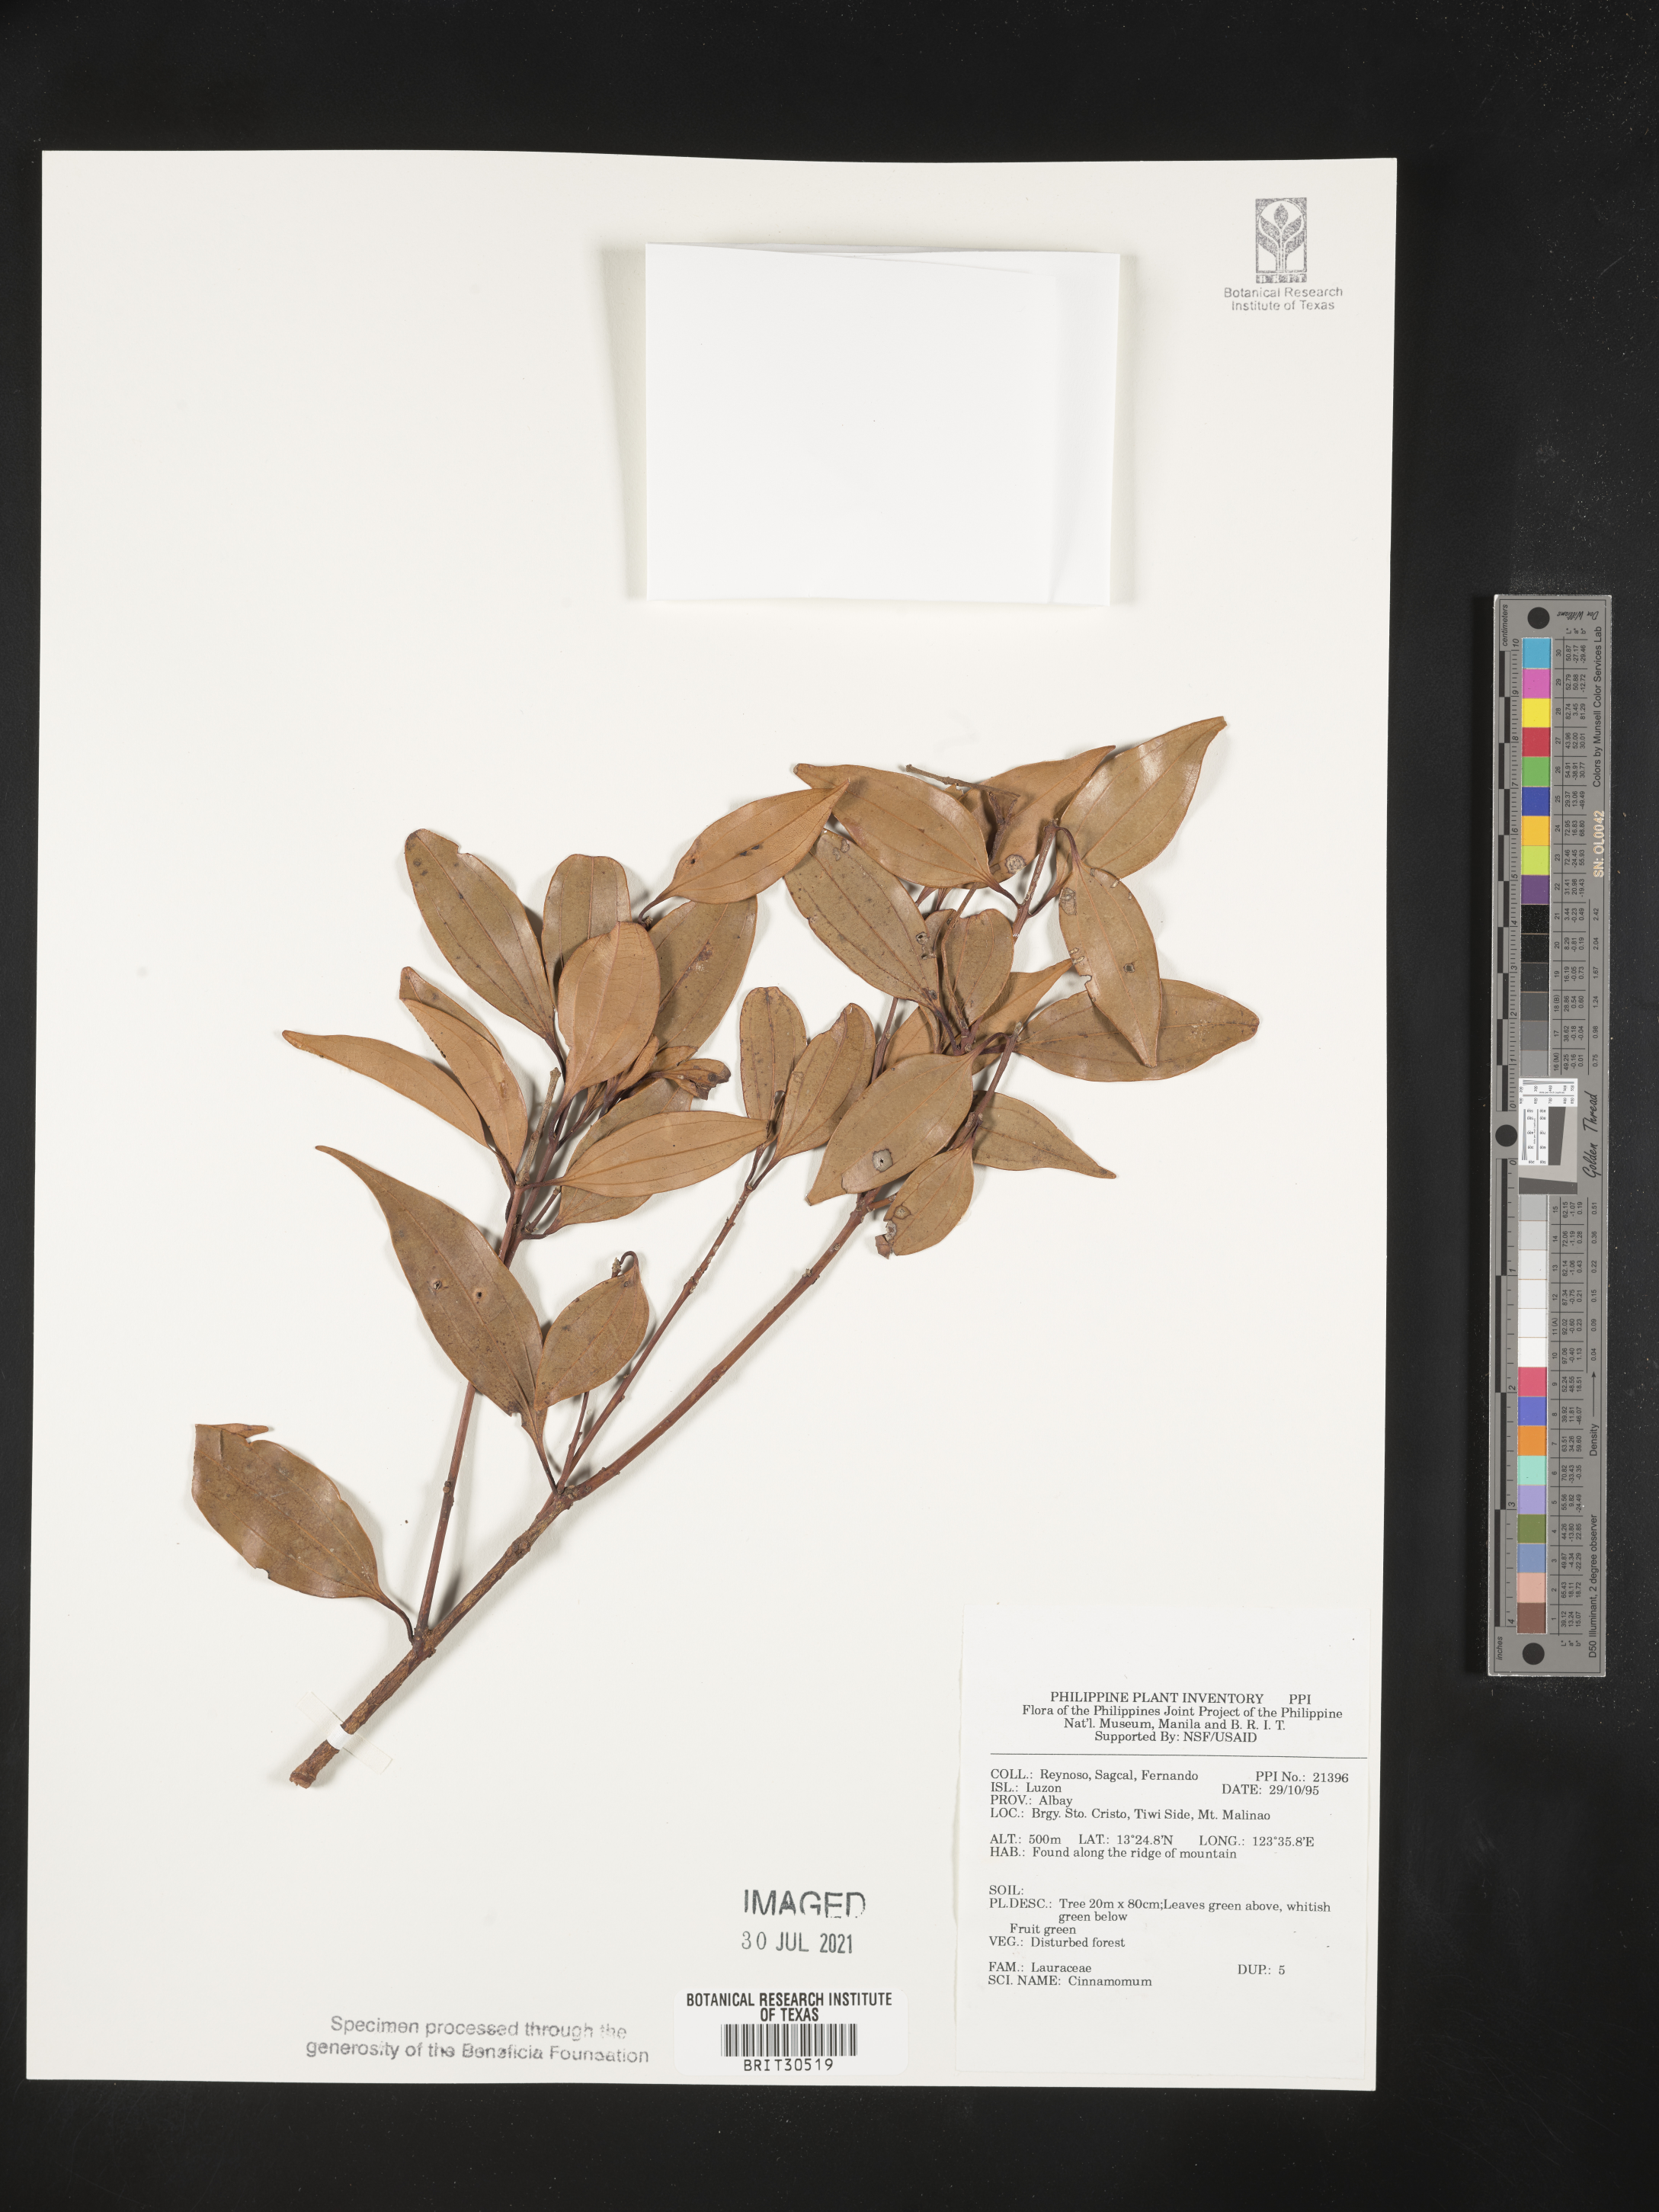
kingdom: Plantae
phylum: Tracheophyta
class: Magnoliopsida
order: Laurales
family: Lauraceae
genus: Cinnamomum
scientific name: Cinnamomum
